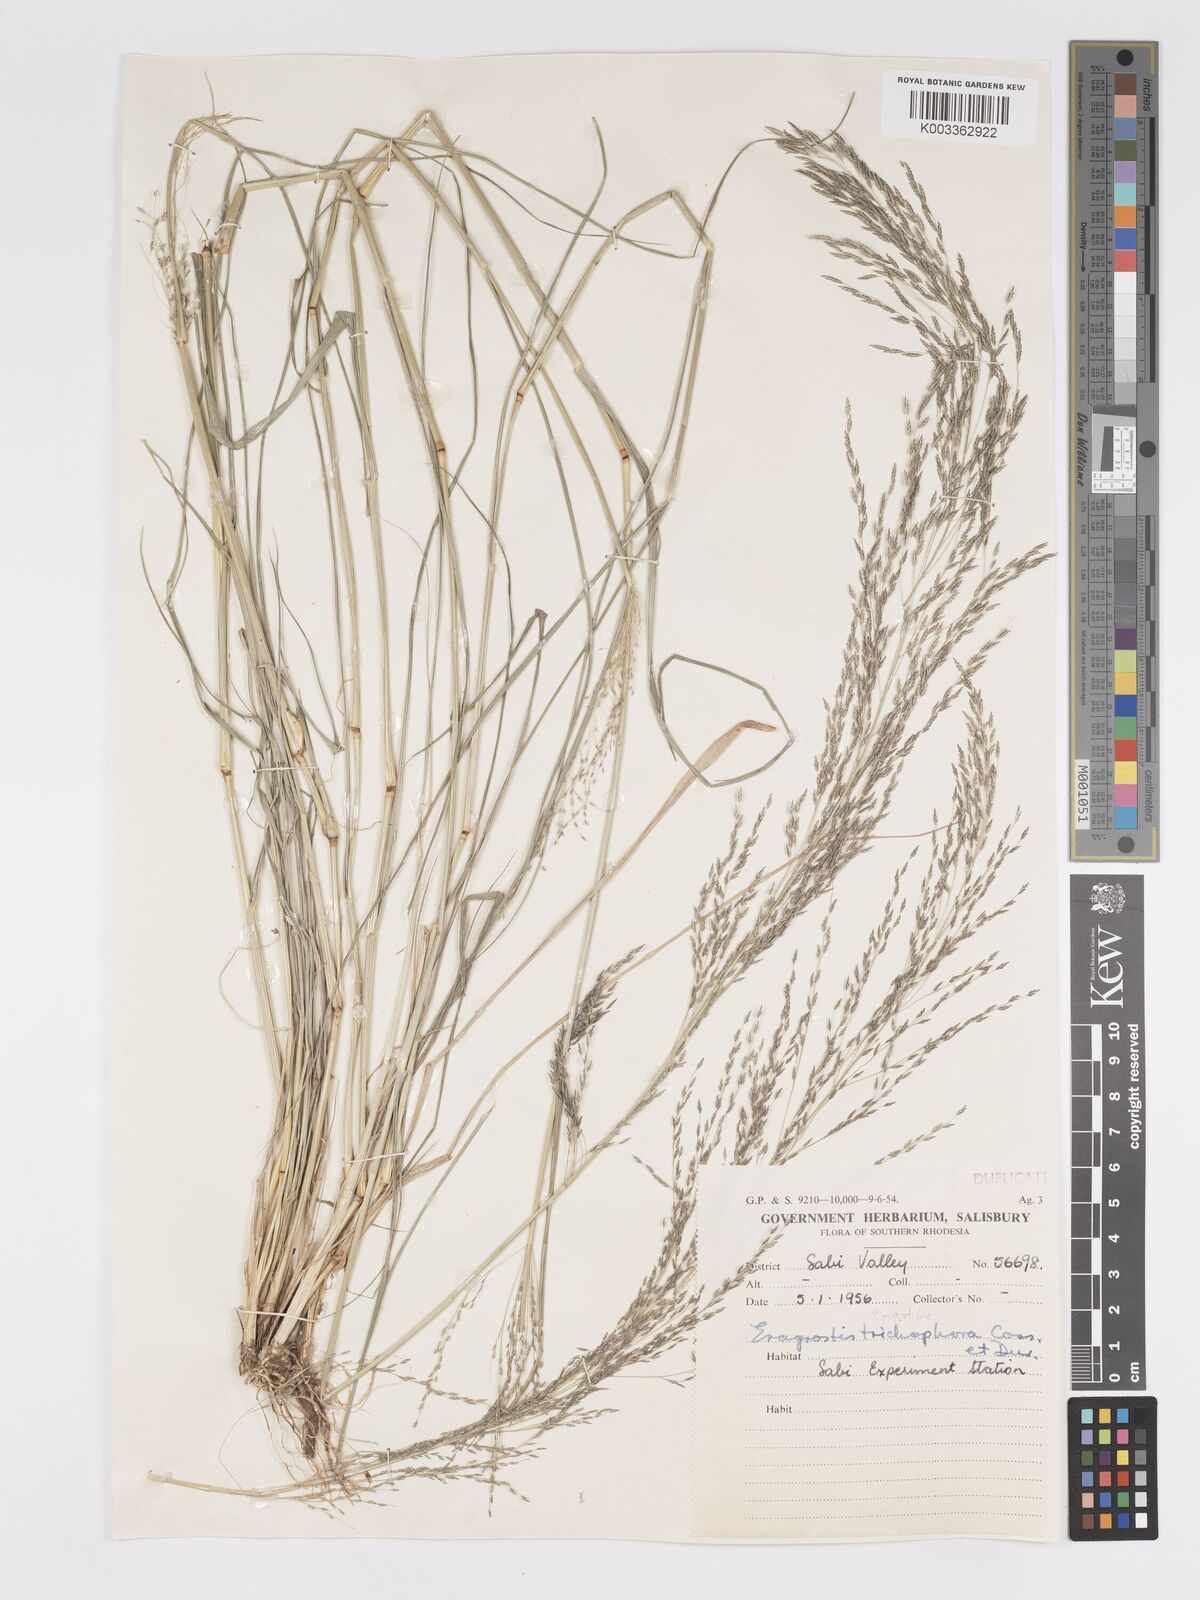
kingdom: Plantae
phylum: Tracheophyta
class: Liliopsida
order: Poales
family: Poaceae
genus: Eragrostis
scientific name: Eragrostis cylindriflora
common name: Cylinderflower lovegrass
